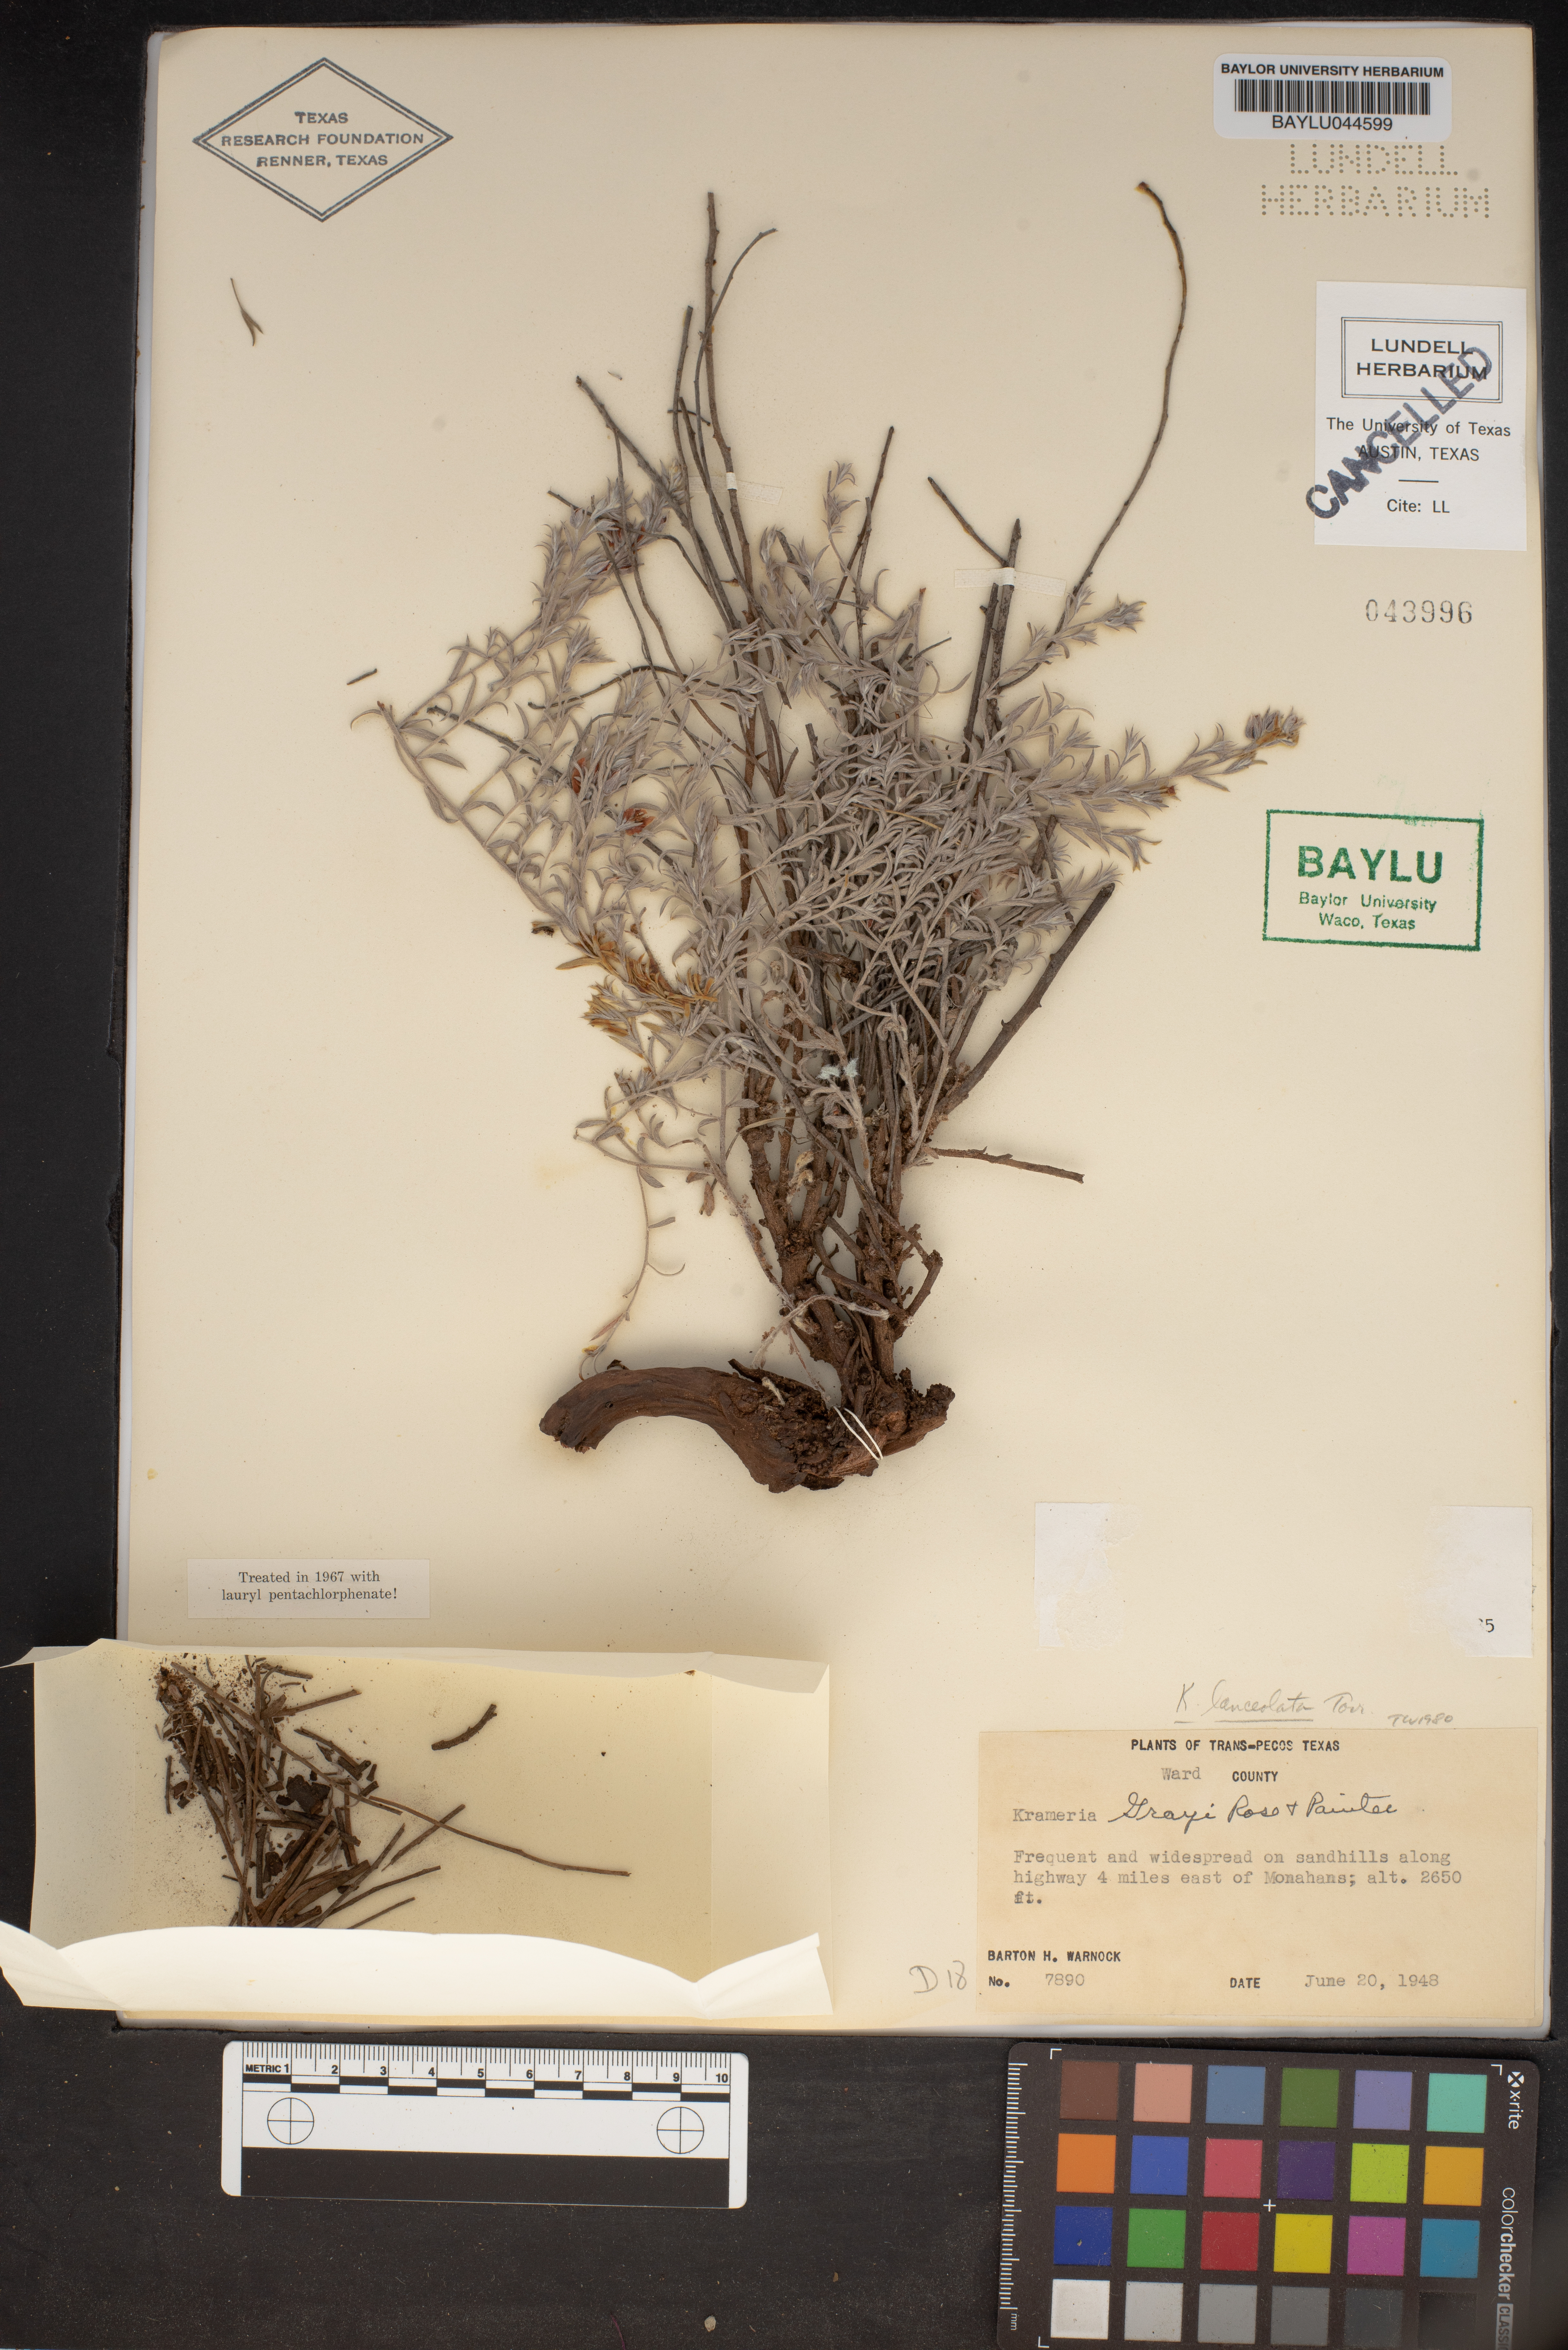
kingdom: Plantae
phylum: Tracheophyta
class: Magnoliopsida
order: Zygophyllales
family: Krameriaceae
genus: Krameria
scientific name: Krameria bicolor
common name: White ratany
